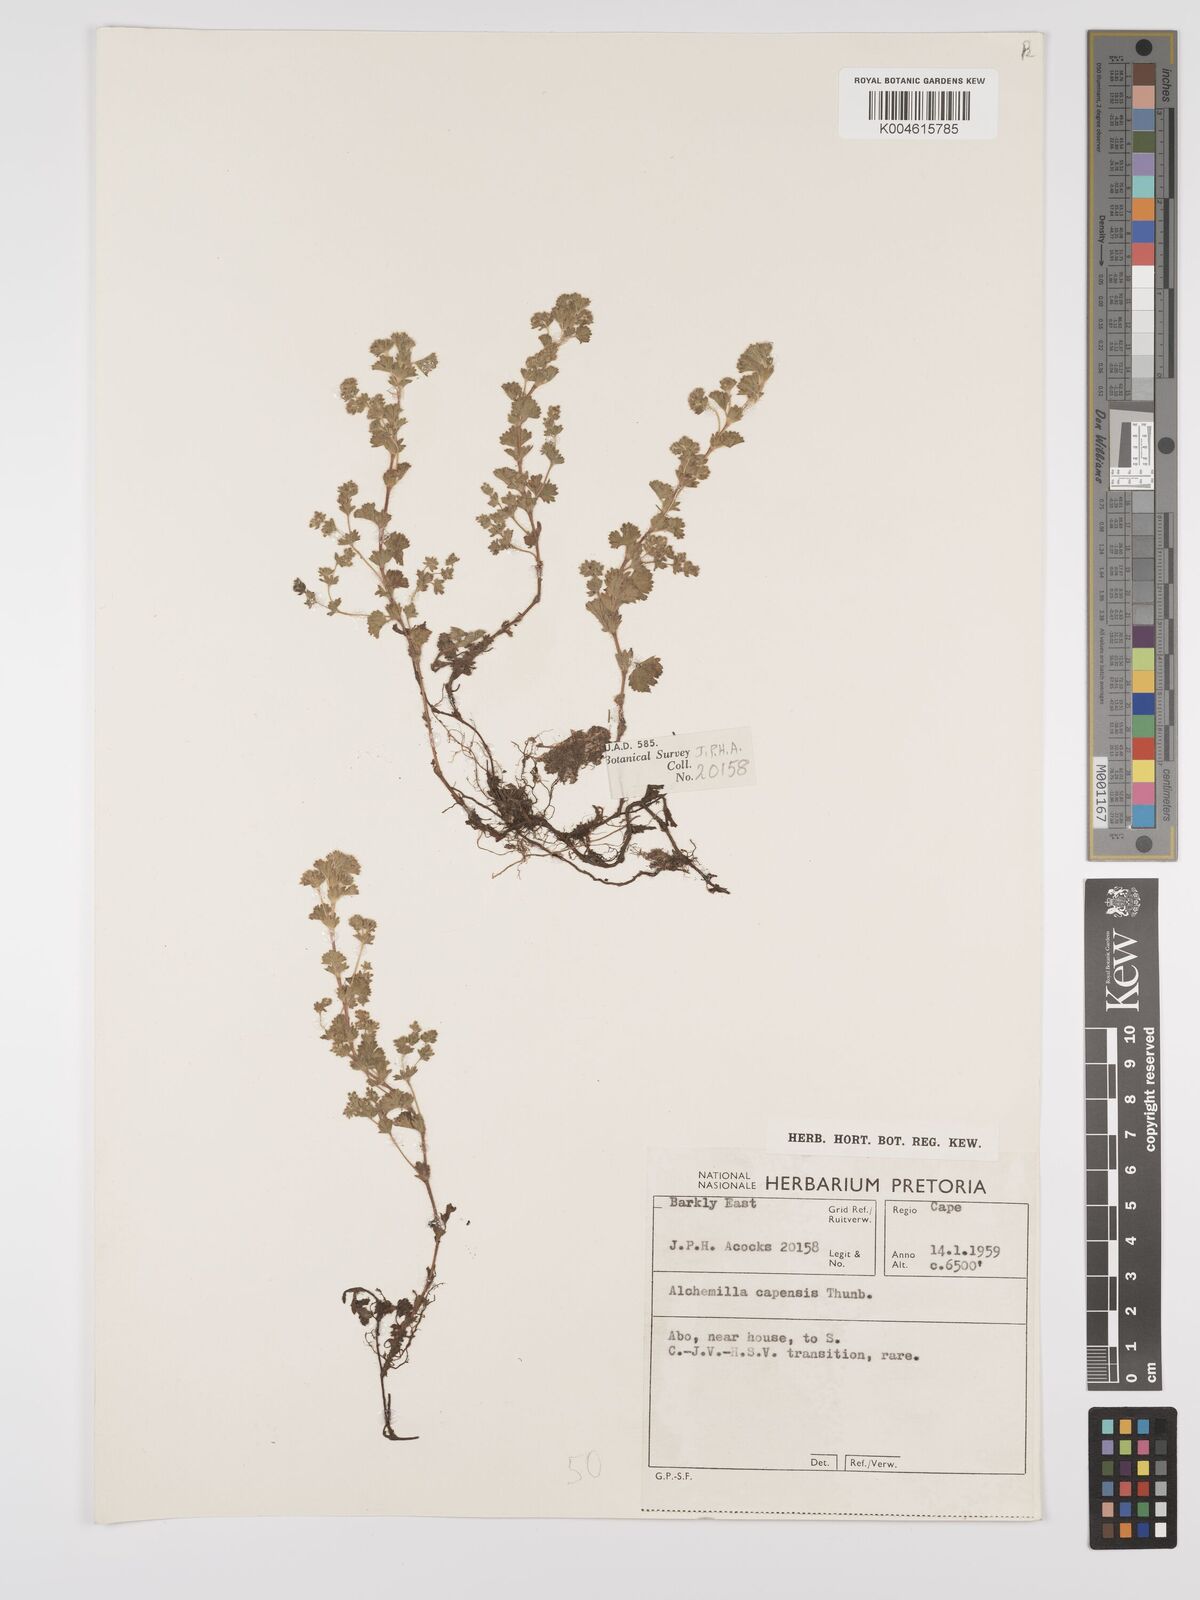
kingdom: Plantae
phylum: Tracheophyta
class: Magnoliopsida
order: Rosales
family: Rosaceae
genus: Alchemilla
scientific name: Alchemilla woodii
